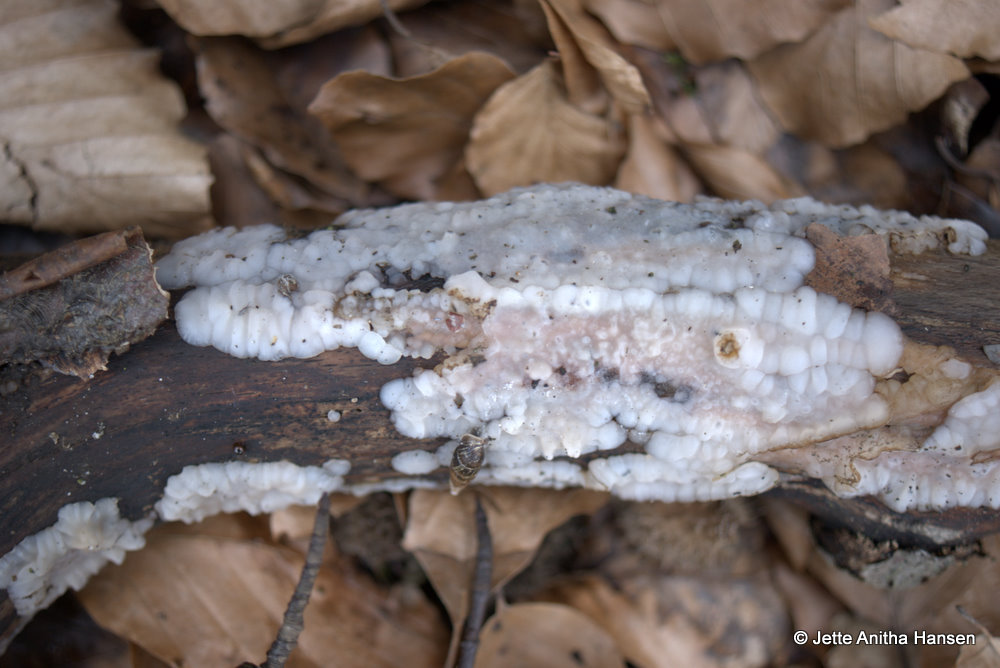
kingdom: Fungi
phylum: Basidiomycota
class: Agaricomycetes
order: Auriculariales
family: Auriculariaceae
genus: Exidia
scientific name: Exidia thuretiana
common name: hvidlig bævretop
